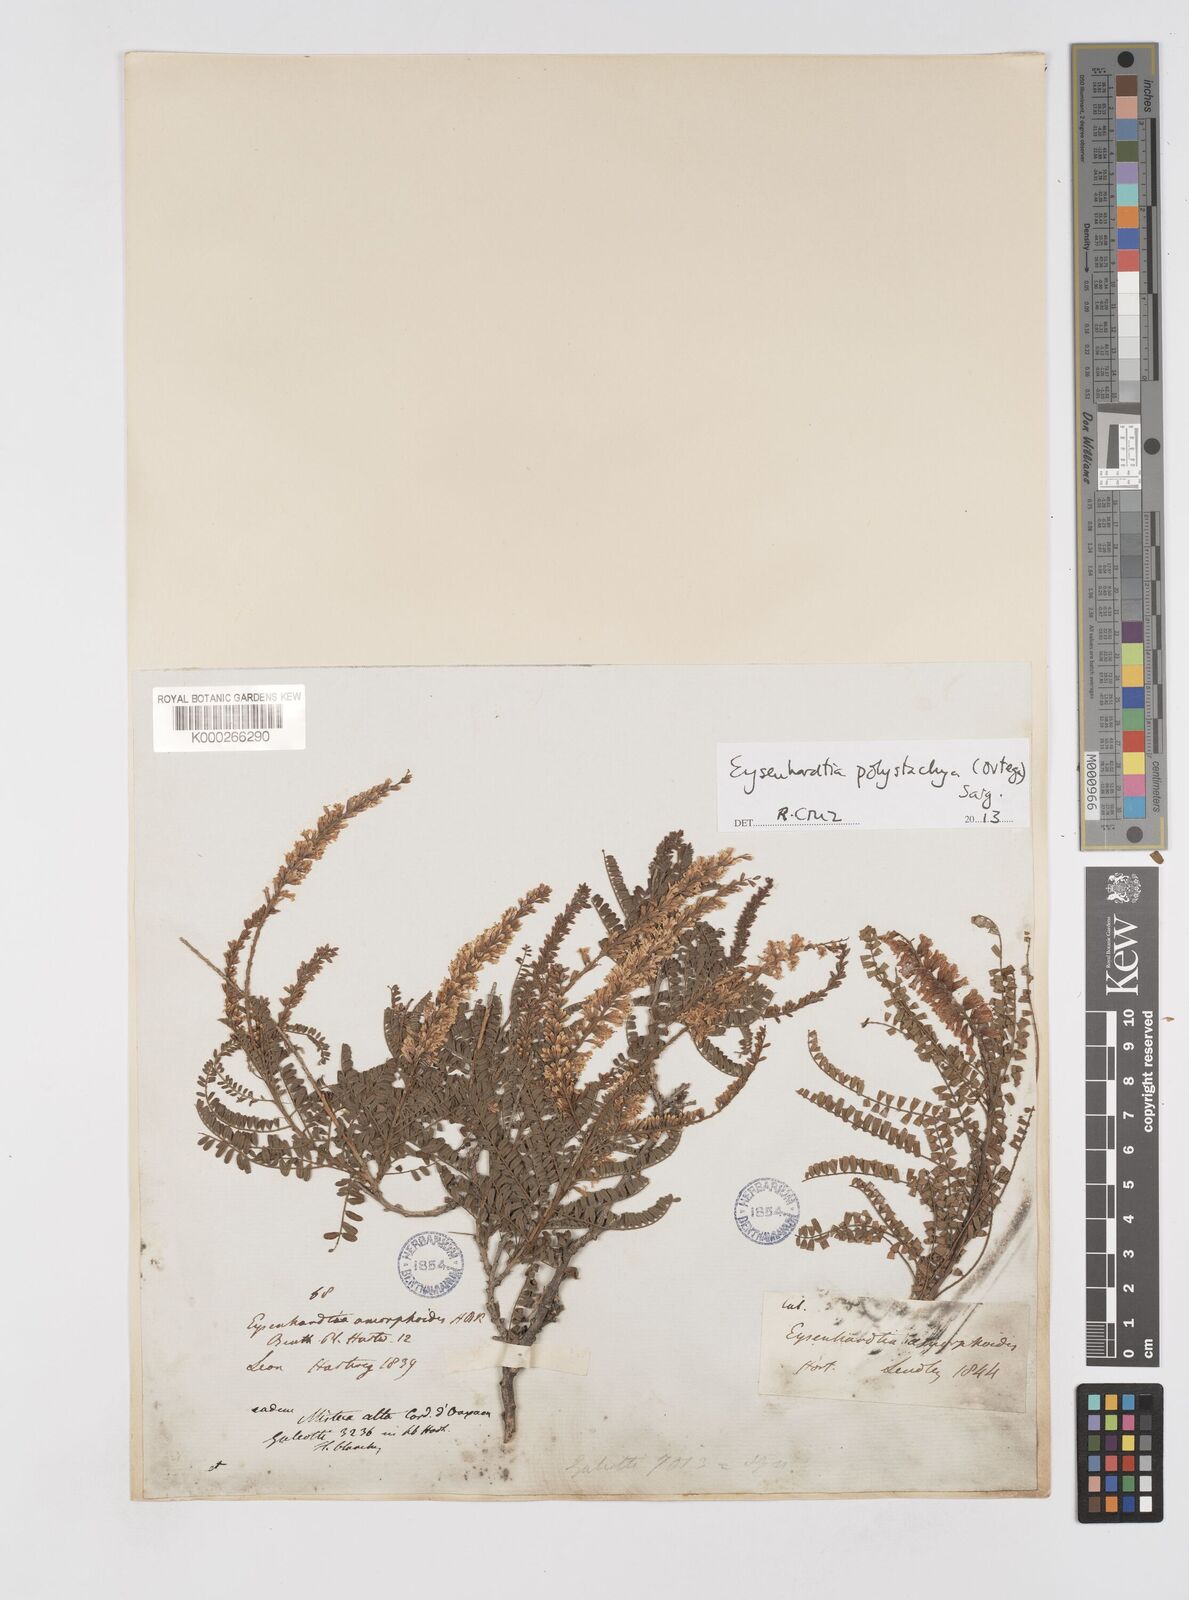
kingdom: Plantae
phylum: Tracheophyta
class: Magnoliopsida
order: Fabales
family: Fabaceae
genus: Eysenhardtia
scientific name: Eysenhardtia polystachya
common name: Kidneywood
